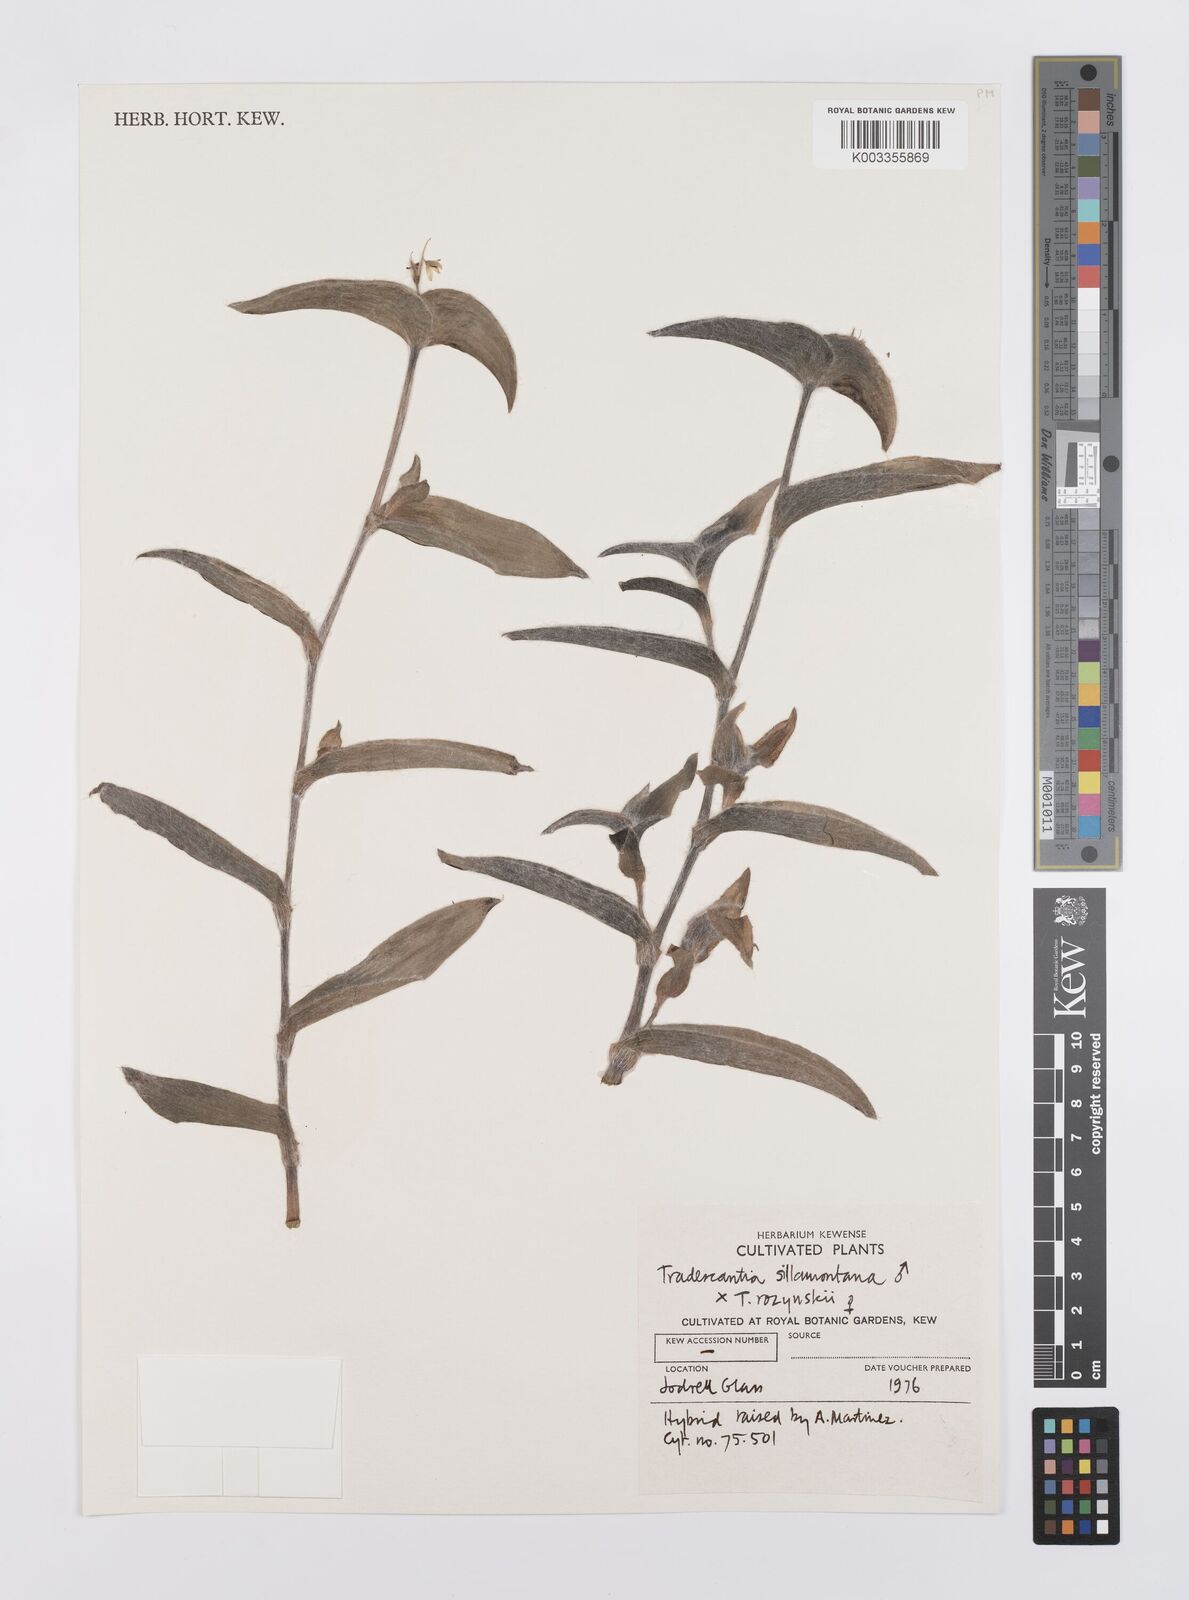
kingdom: Plantae
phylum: Tracheophyta
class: Liliopsida
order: Commelinales
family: Commelinaceae
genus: Tradescantia
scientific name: Tradescantia sillamontana
